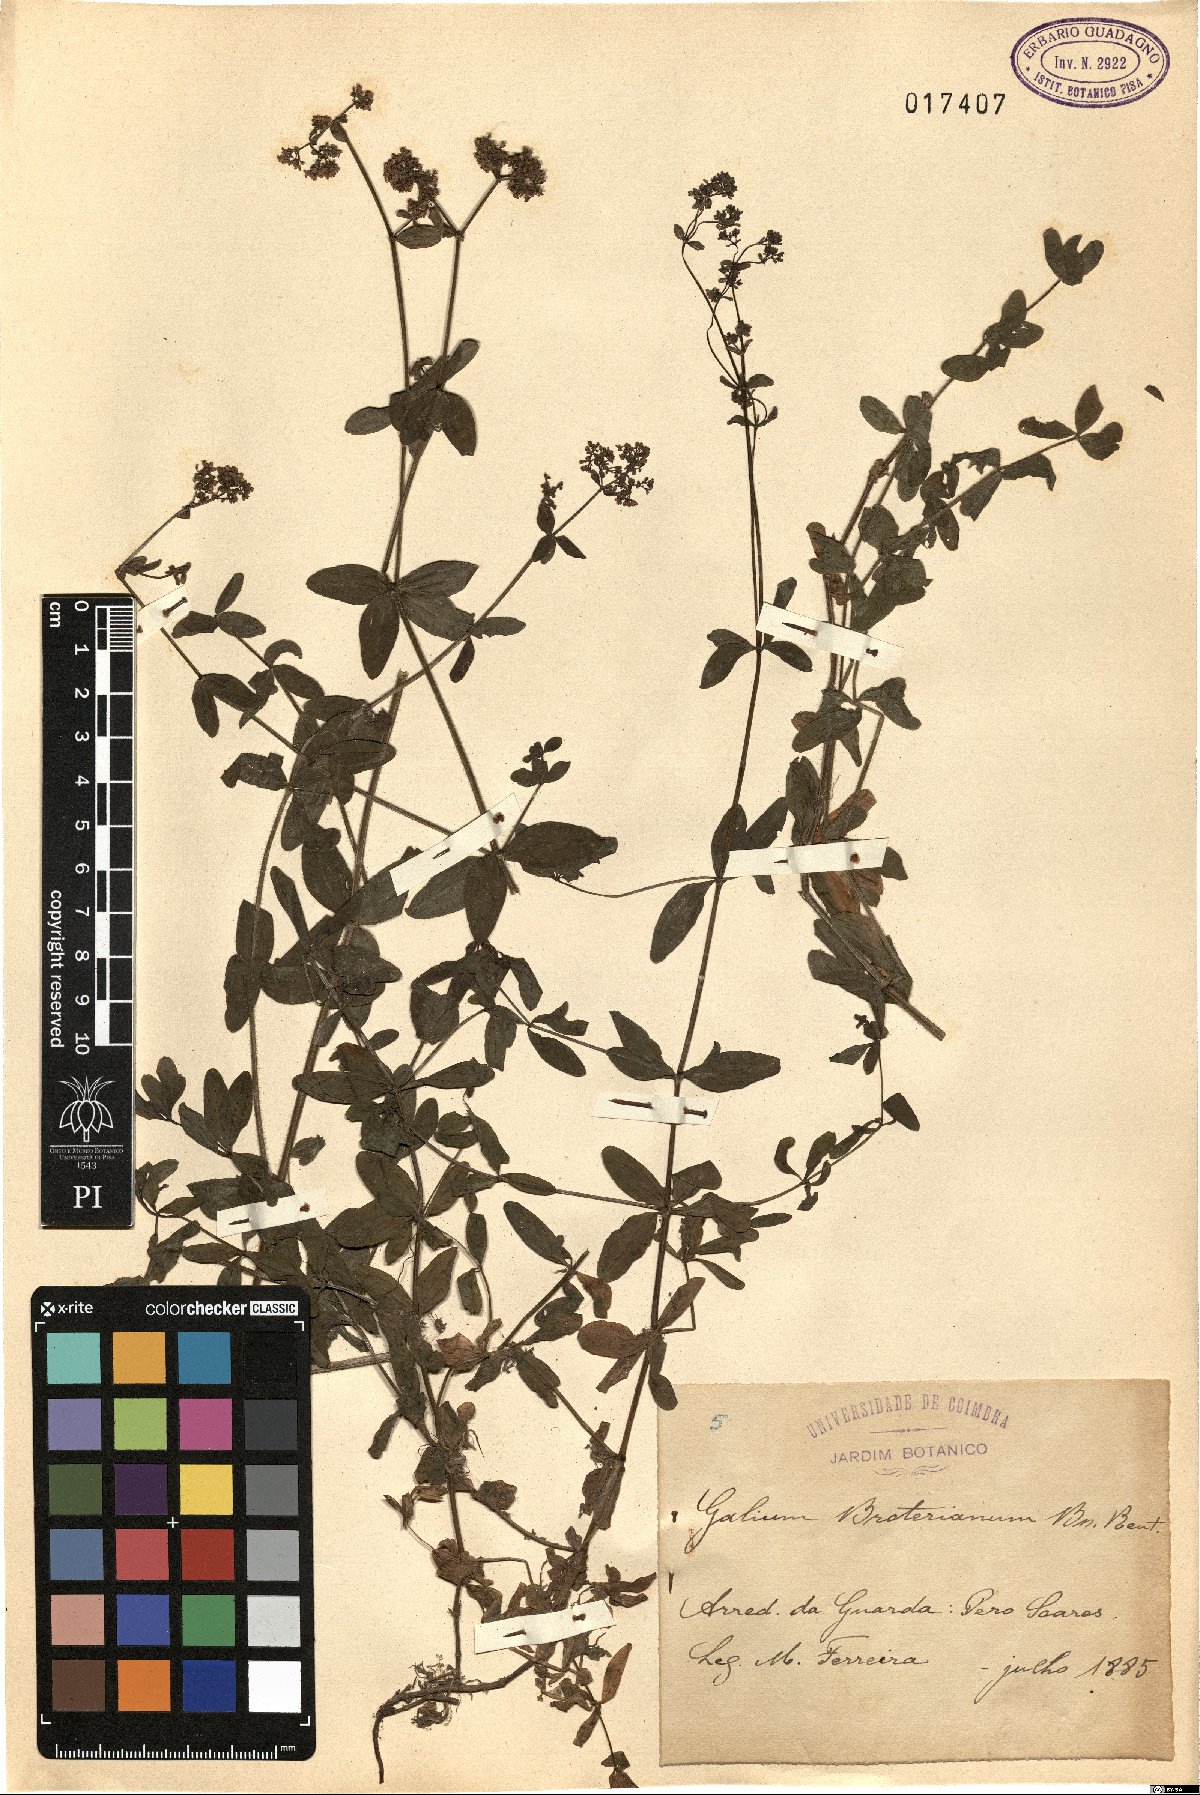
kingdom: Plantae
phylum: Tracheophyta
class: Magnoliopsida
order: Gentianales
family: Rubiaceae
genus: Galium
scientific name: Galium broterianum
